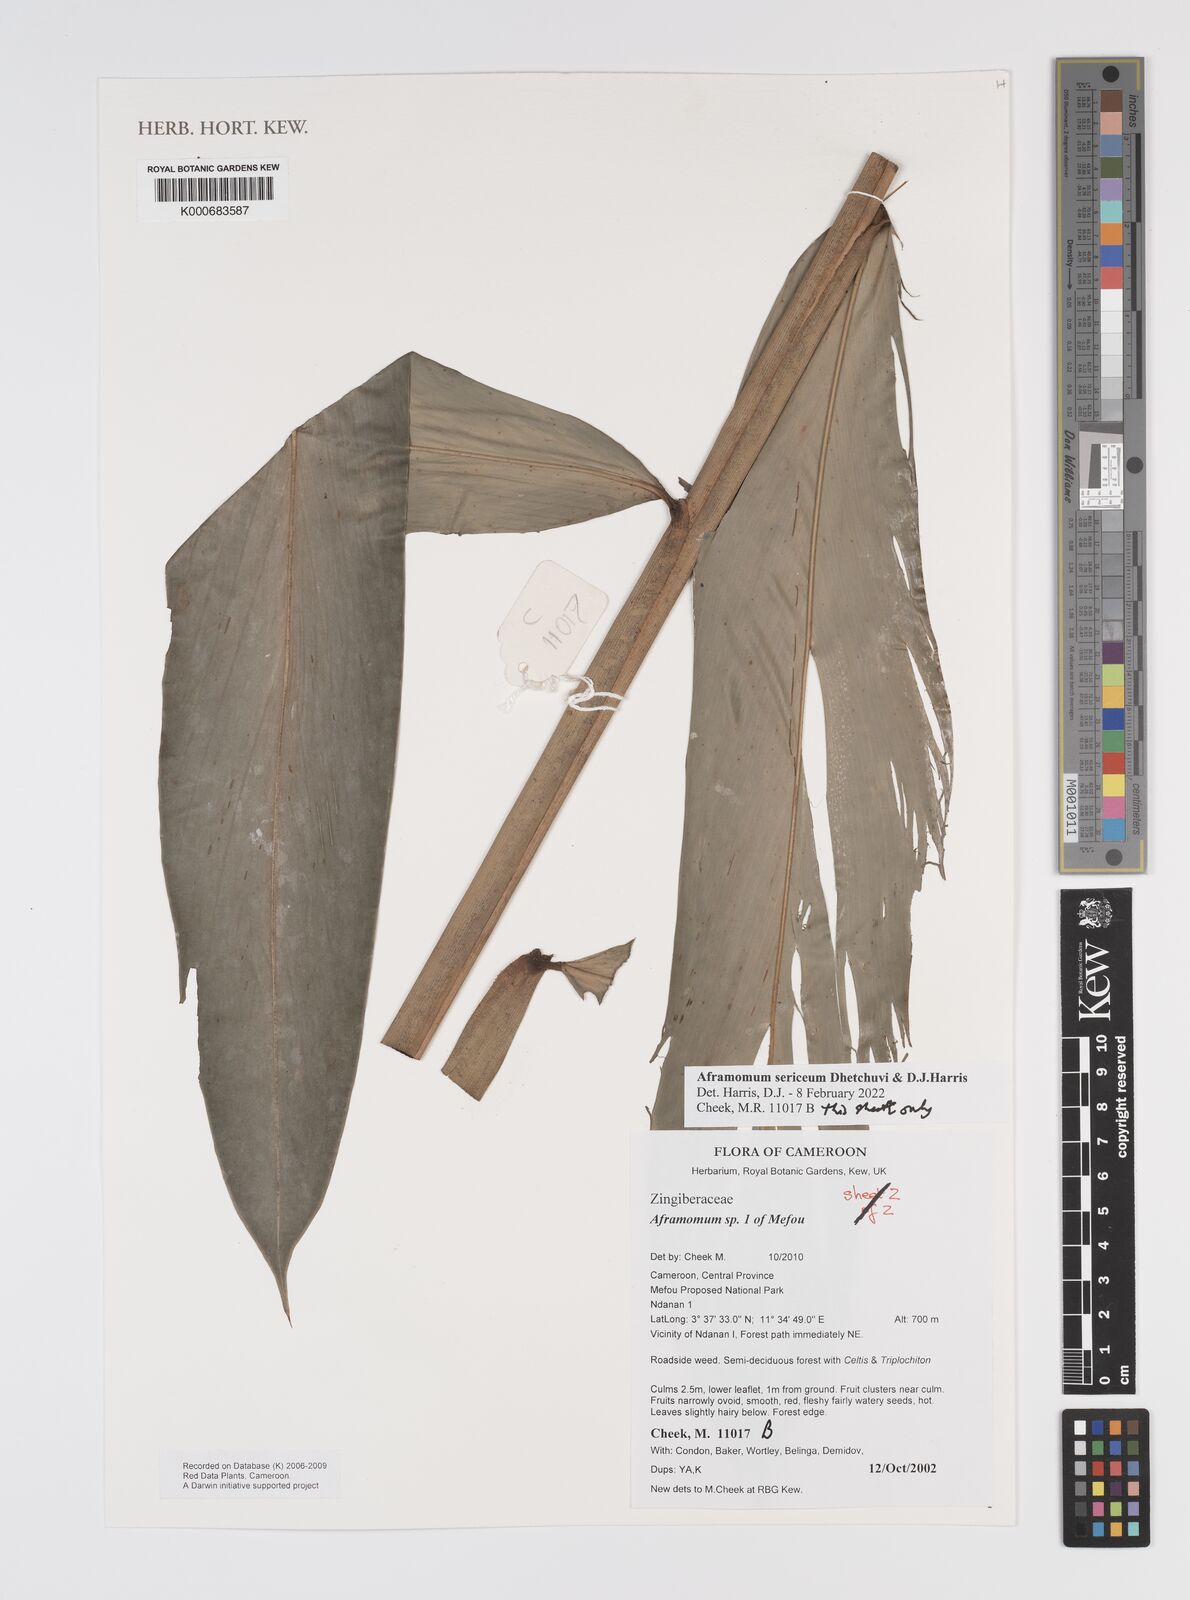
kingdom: Plantae
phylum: Tracheophyta
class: Liliopsida
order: Zingiberales
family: Zingiberaceae
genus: Aframomum
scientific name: Aframomum
